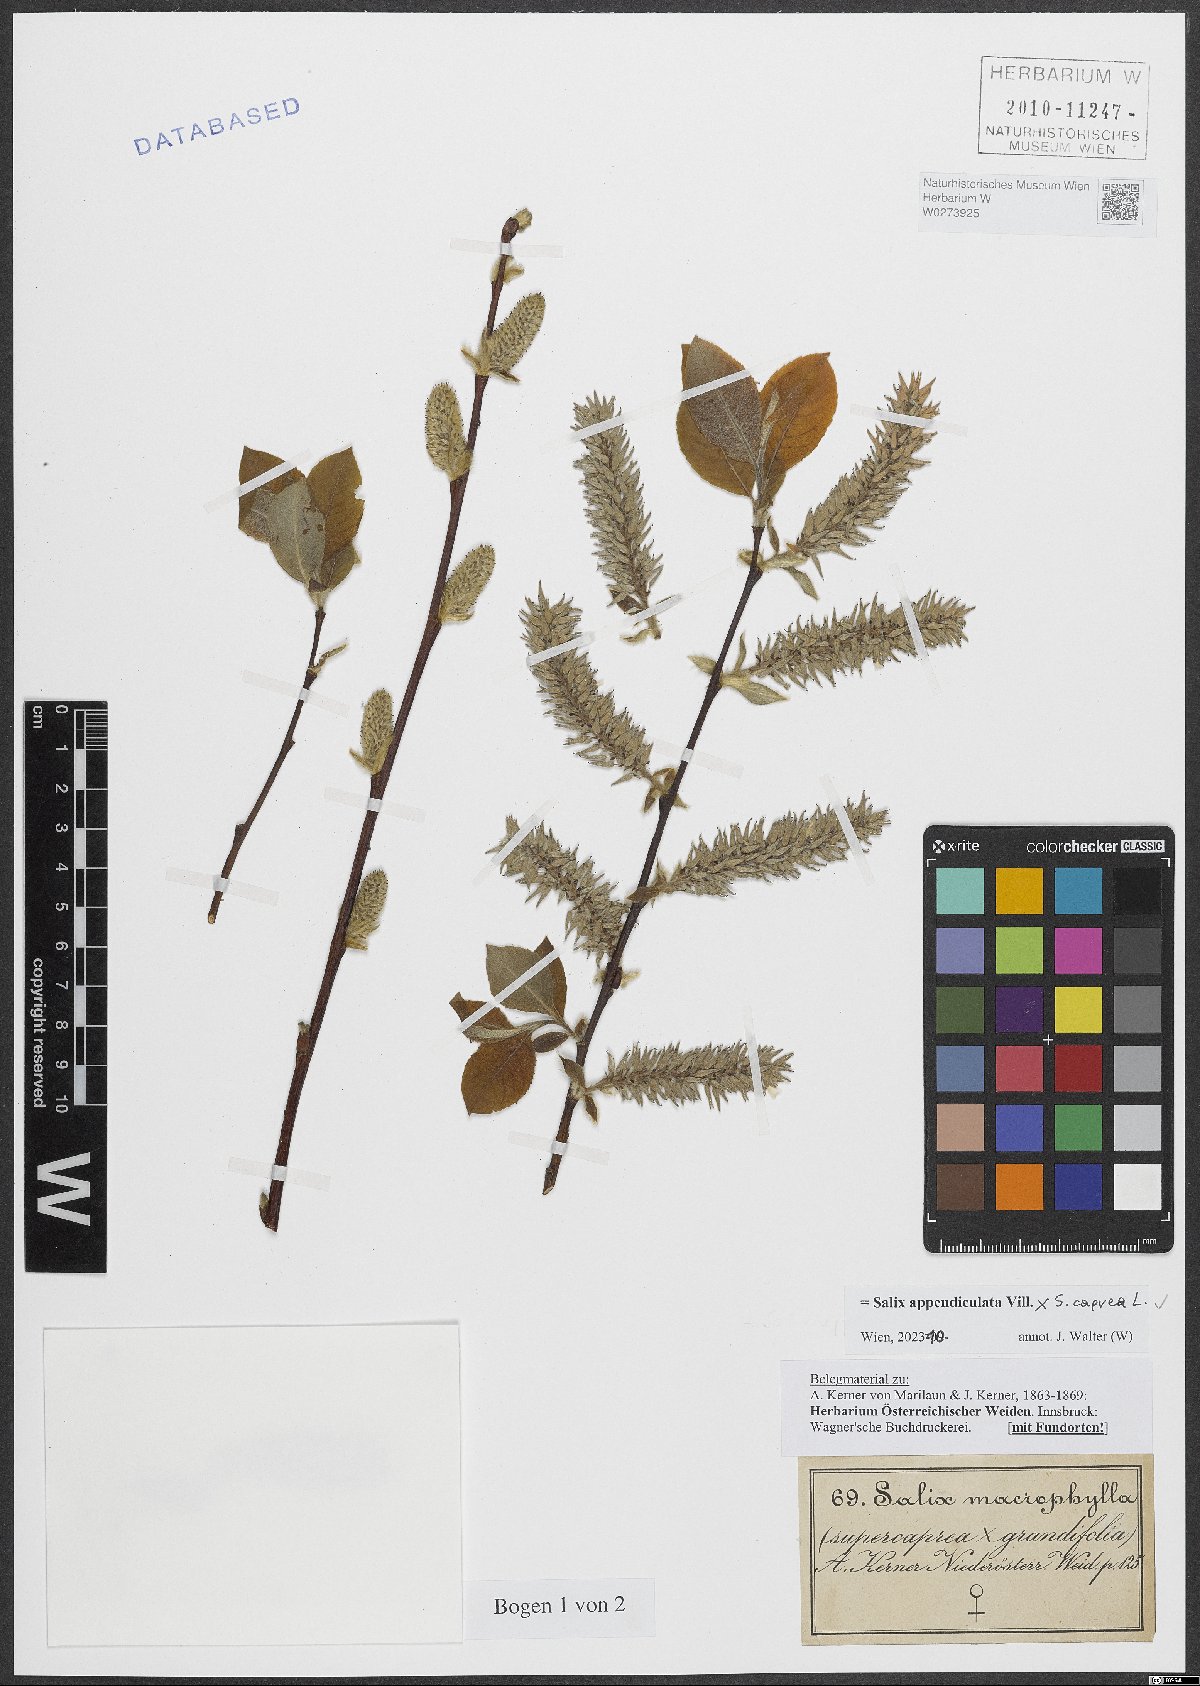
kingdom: Plantae
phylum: Tracheophyta
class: Magnoliopsida
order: Malpighiales
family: Salicaceae
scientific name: Salicaceae
